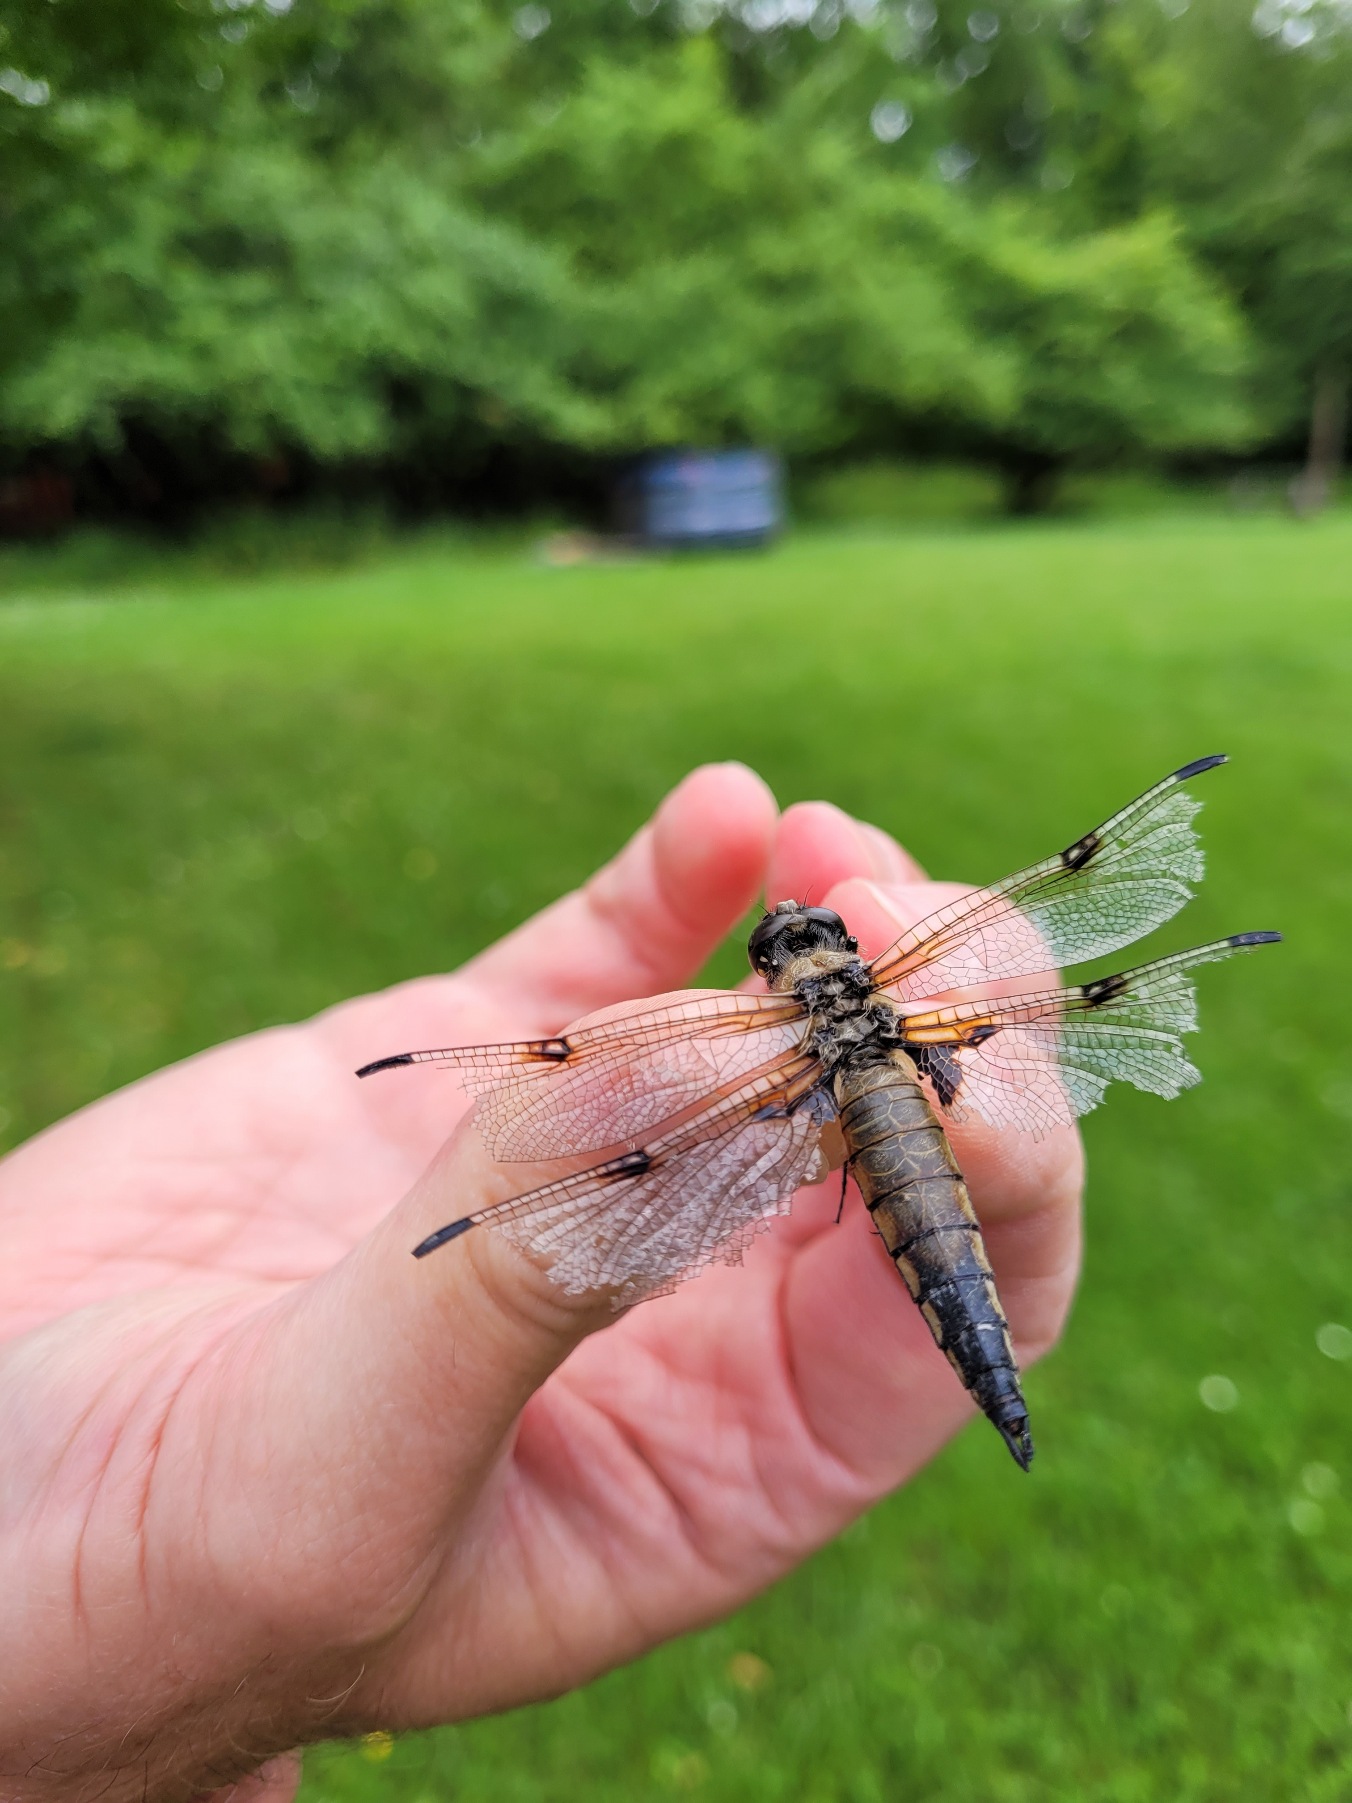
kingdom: Animalia
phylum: Arthropoda
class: Insecta
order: Odonata
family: Libellulidae
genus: Libellula
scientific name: Libellula quadrimaculata
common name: Fireplettet libel
